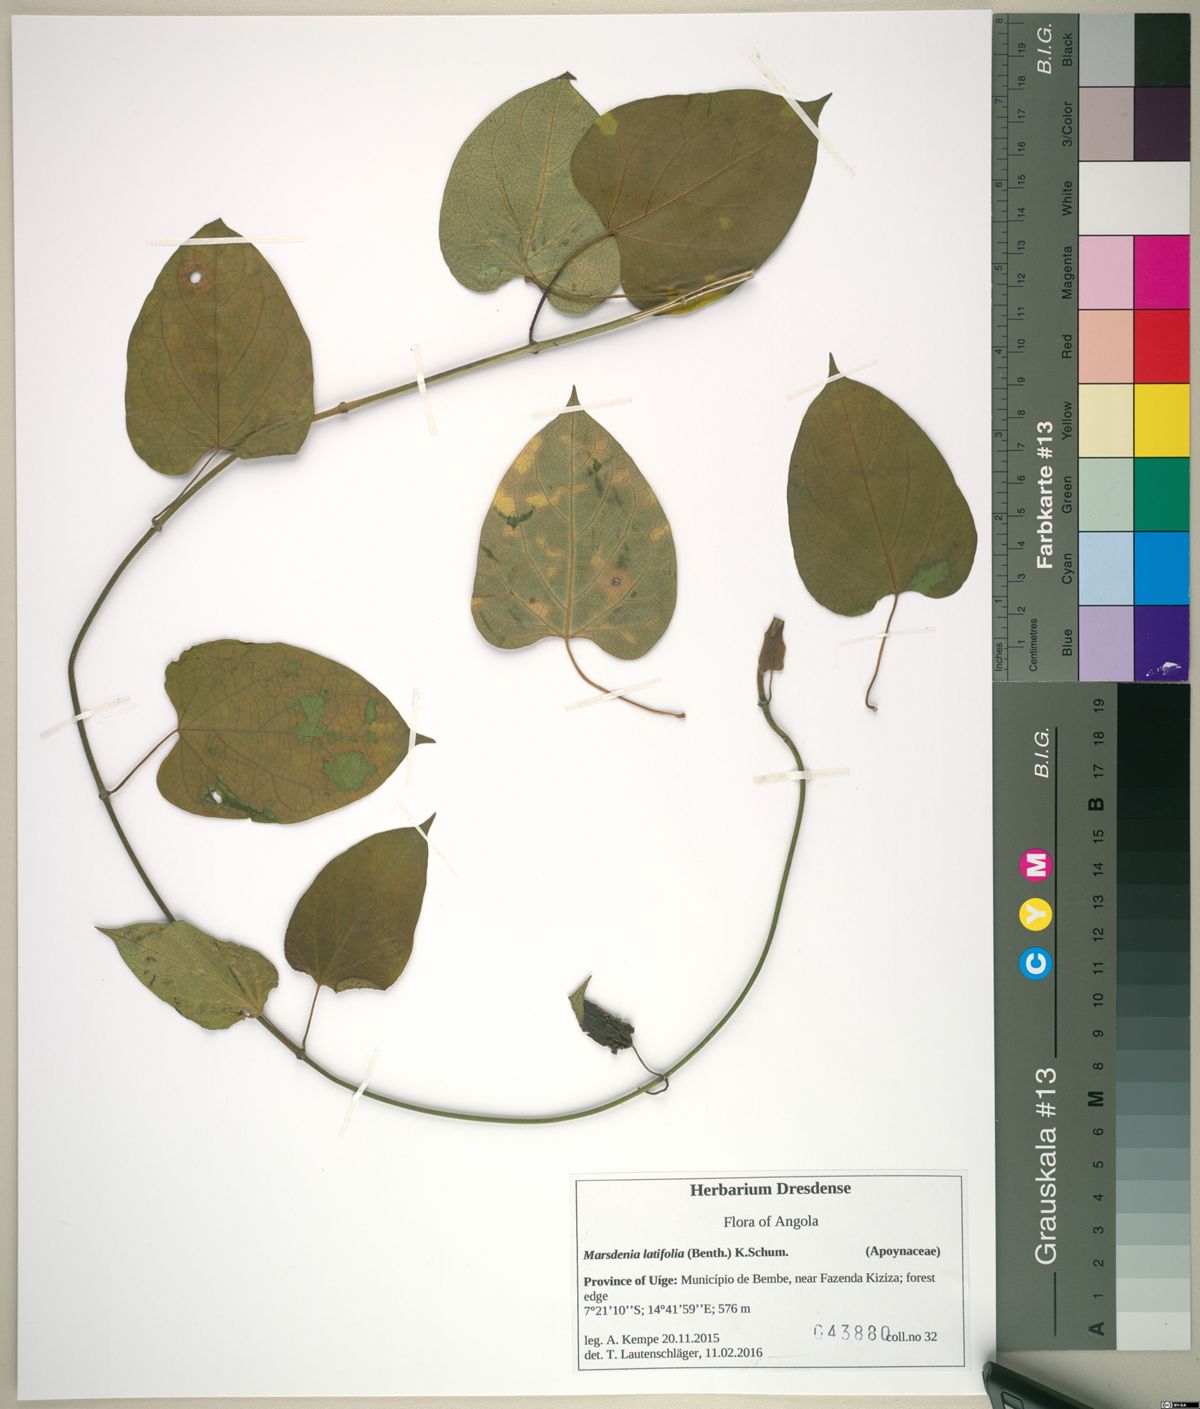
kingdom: Plantae
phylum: Tracheophyta
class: Magnoliopsida
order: Gentianales
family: Apocynaceae
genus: Gongronemopsis
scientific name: Gongronemopsis latifolia
